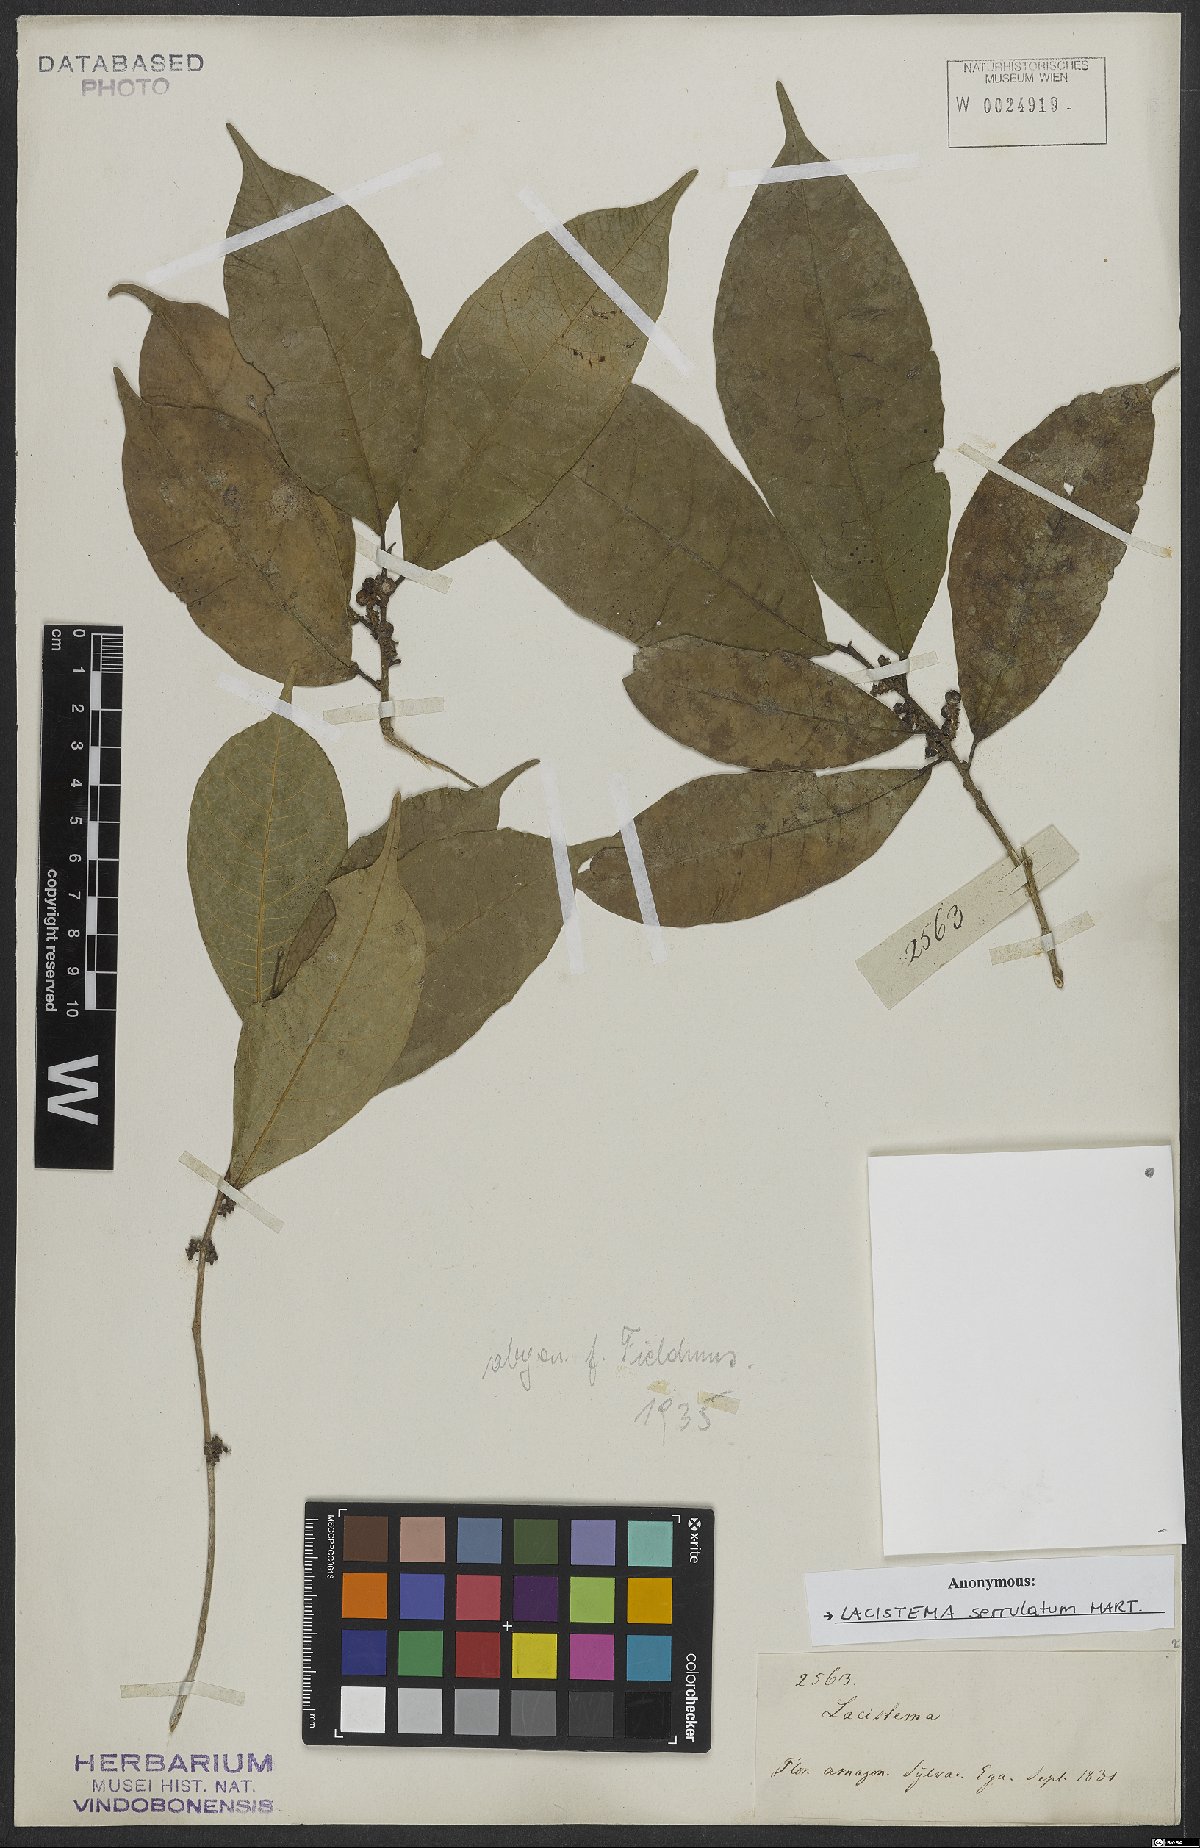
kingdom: Plantae
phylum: Tracheophyta
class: Magnoliopsida
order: Malpighiales
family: Lacistemataceae
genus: Lacistema
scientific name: Lacistema serrulatum
